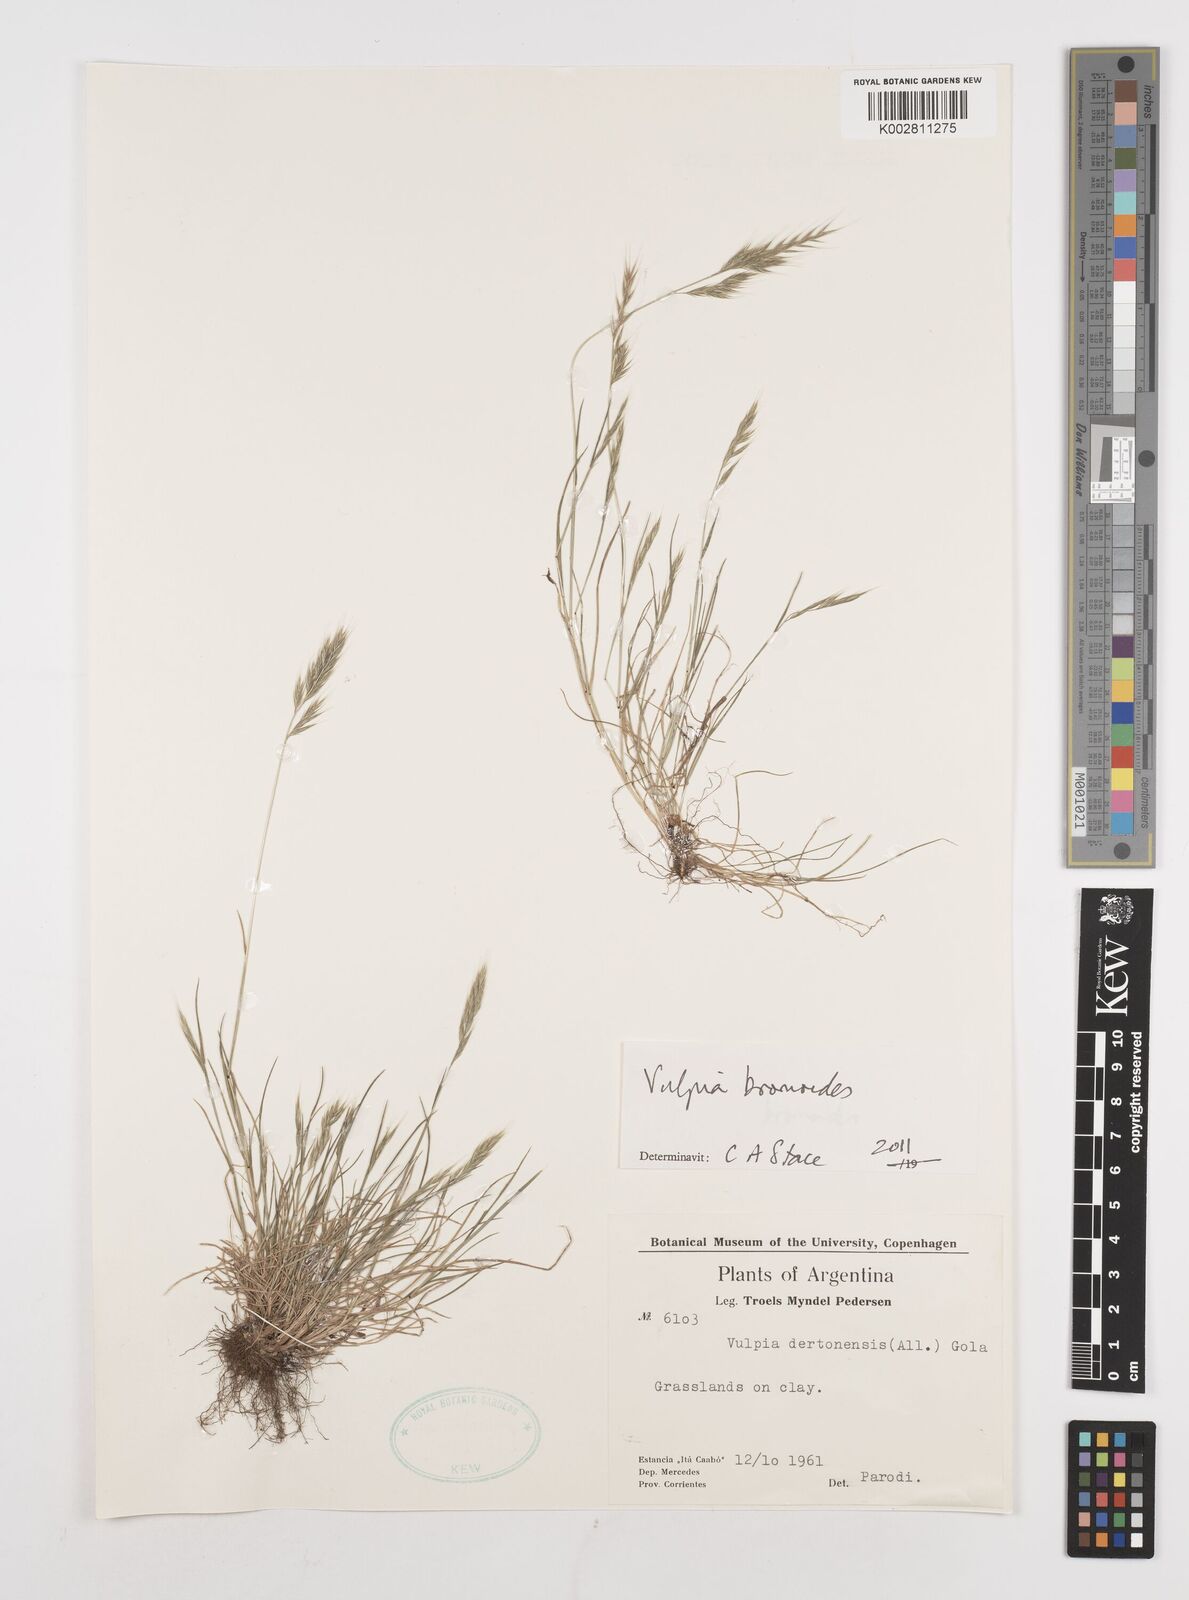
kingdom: Plantae
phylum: Tracheophyta
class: Liliopsida
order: Poales
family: Poaceae
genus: Festuca
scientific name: Festuca bromoides
